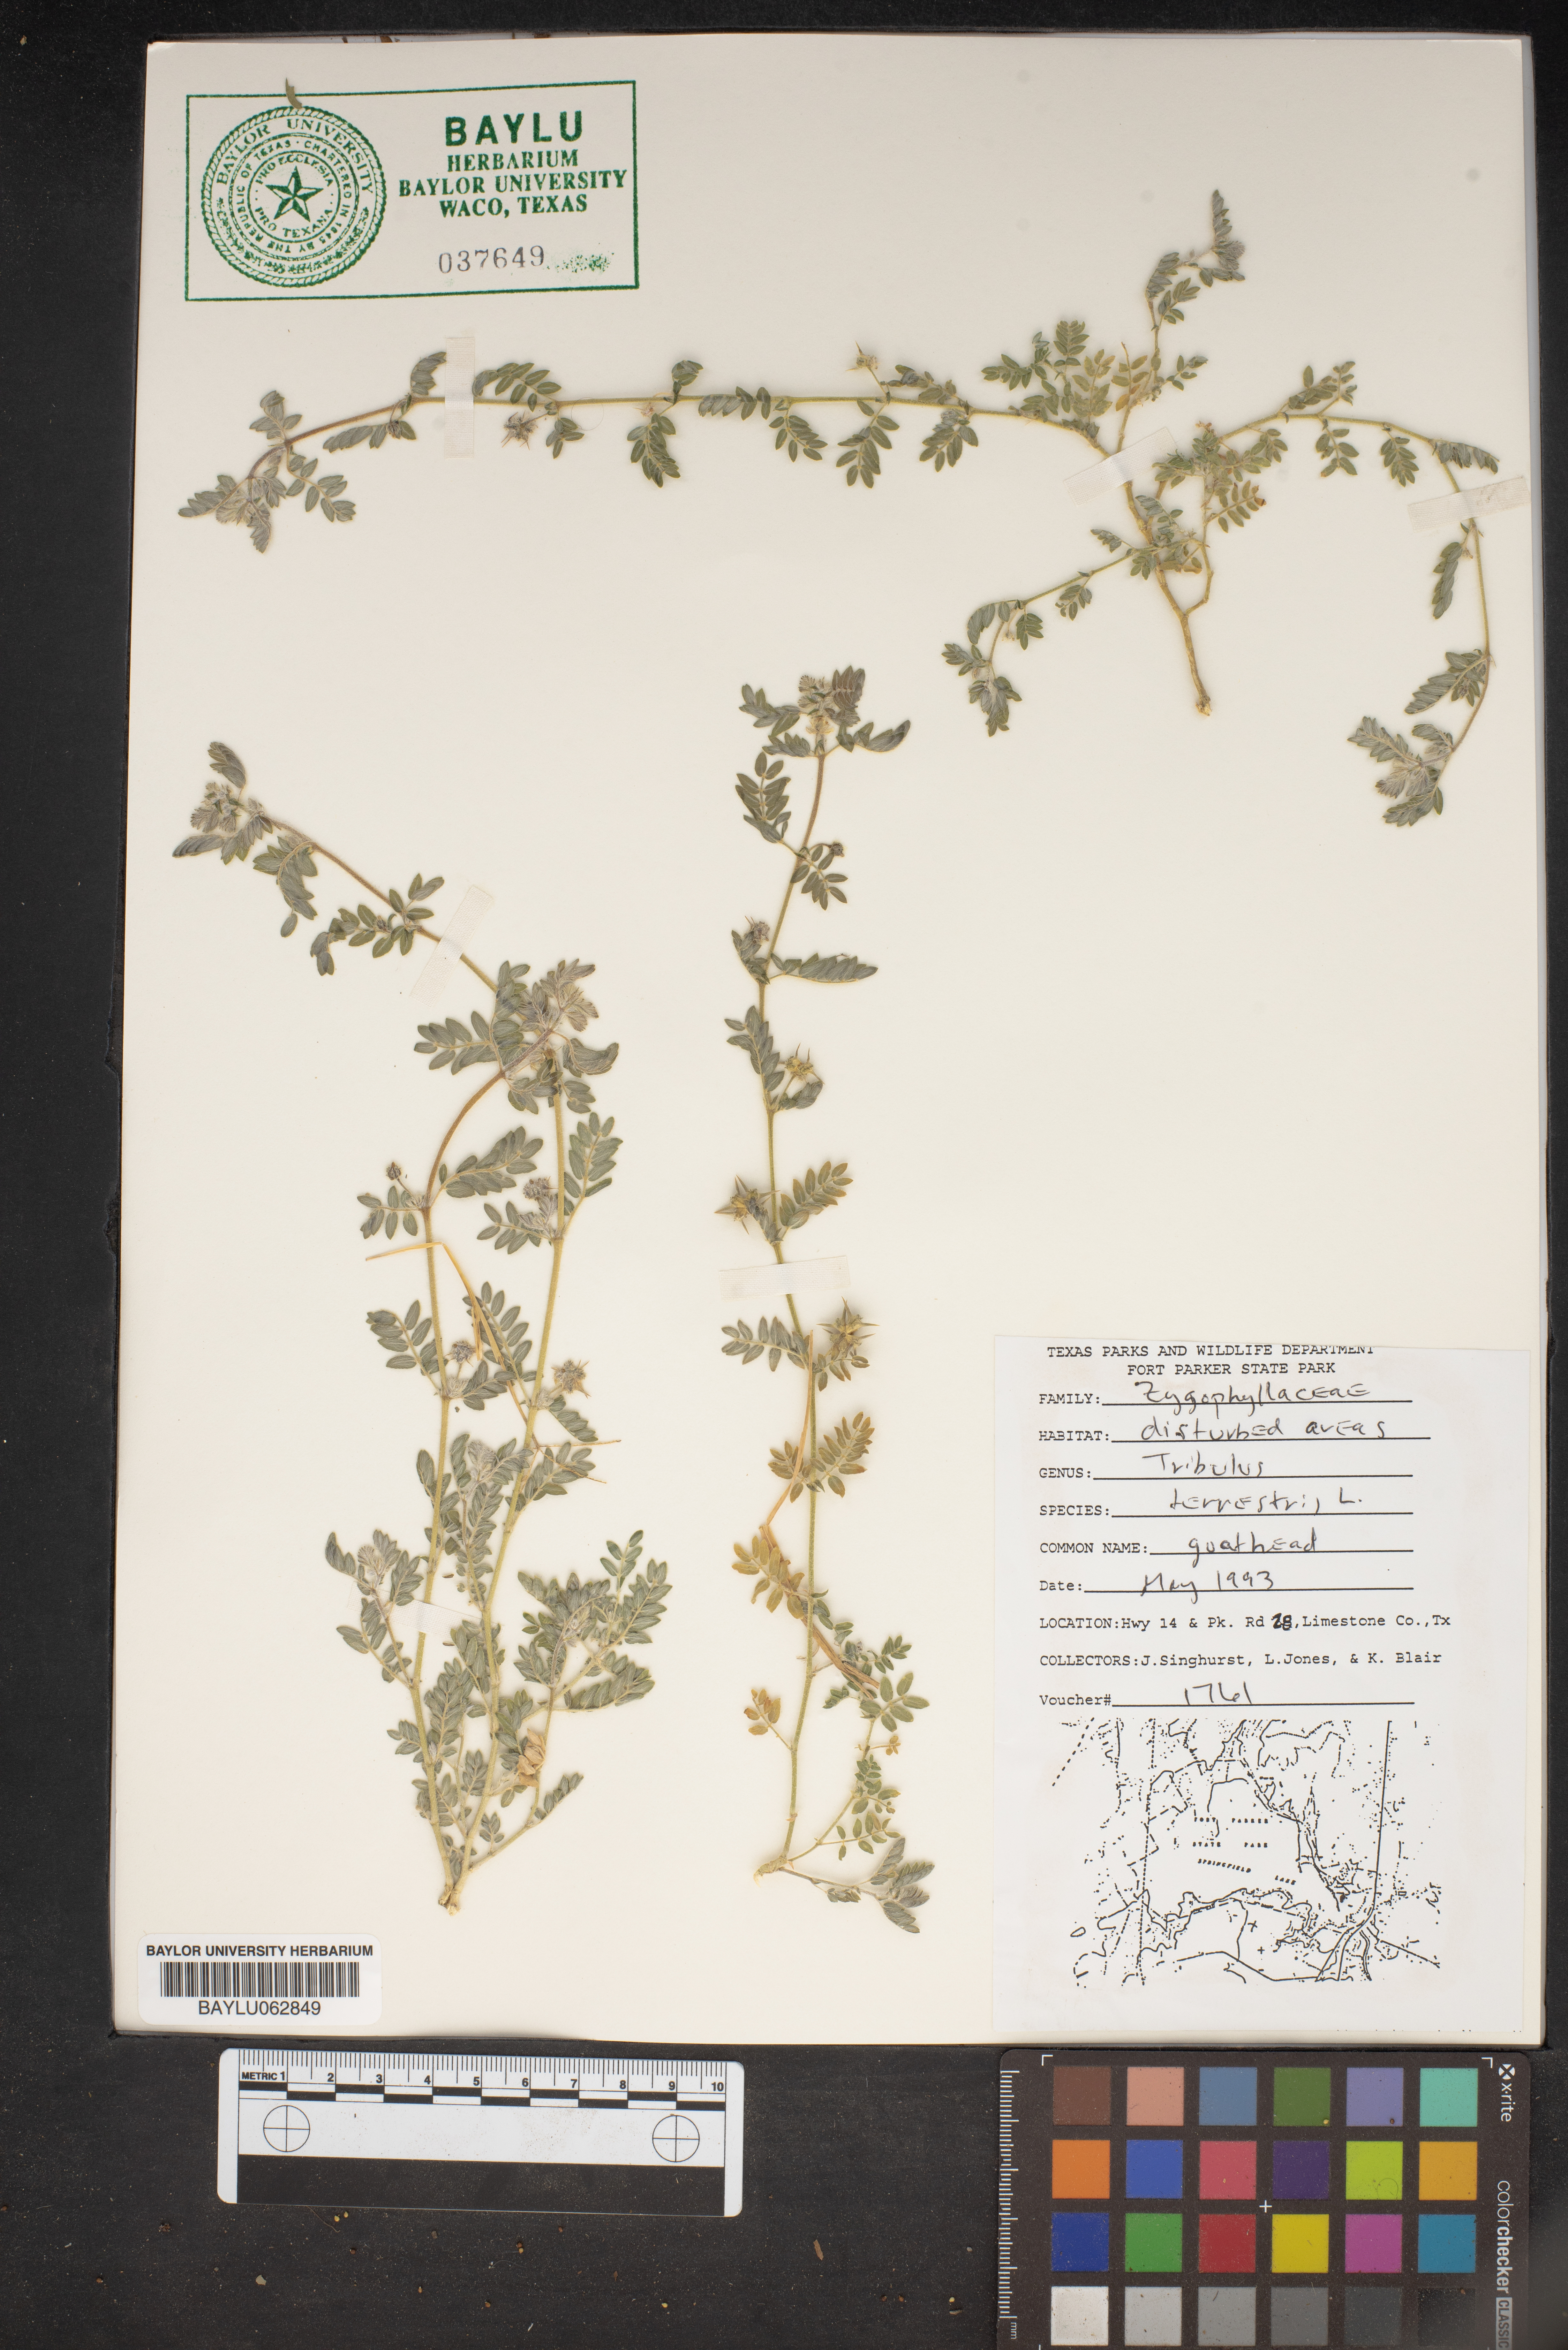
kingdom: Plantae
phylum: Tracheophyta
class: Magnoliopsida
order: Zygophyllales
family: Zygophyllaceae
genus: Tribulus
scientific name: Tribulus terrestris
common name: Puncturevine
